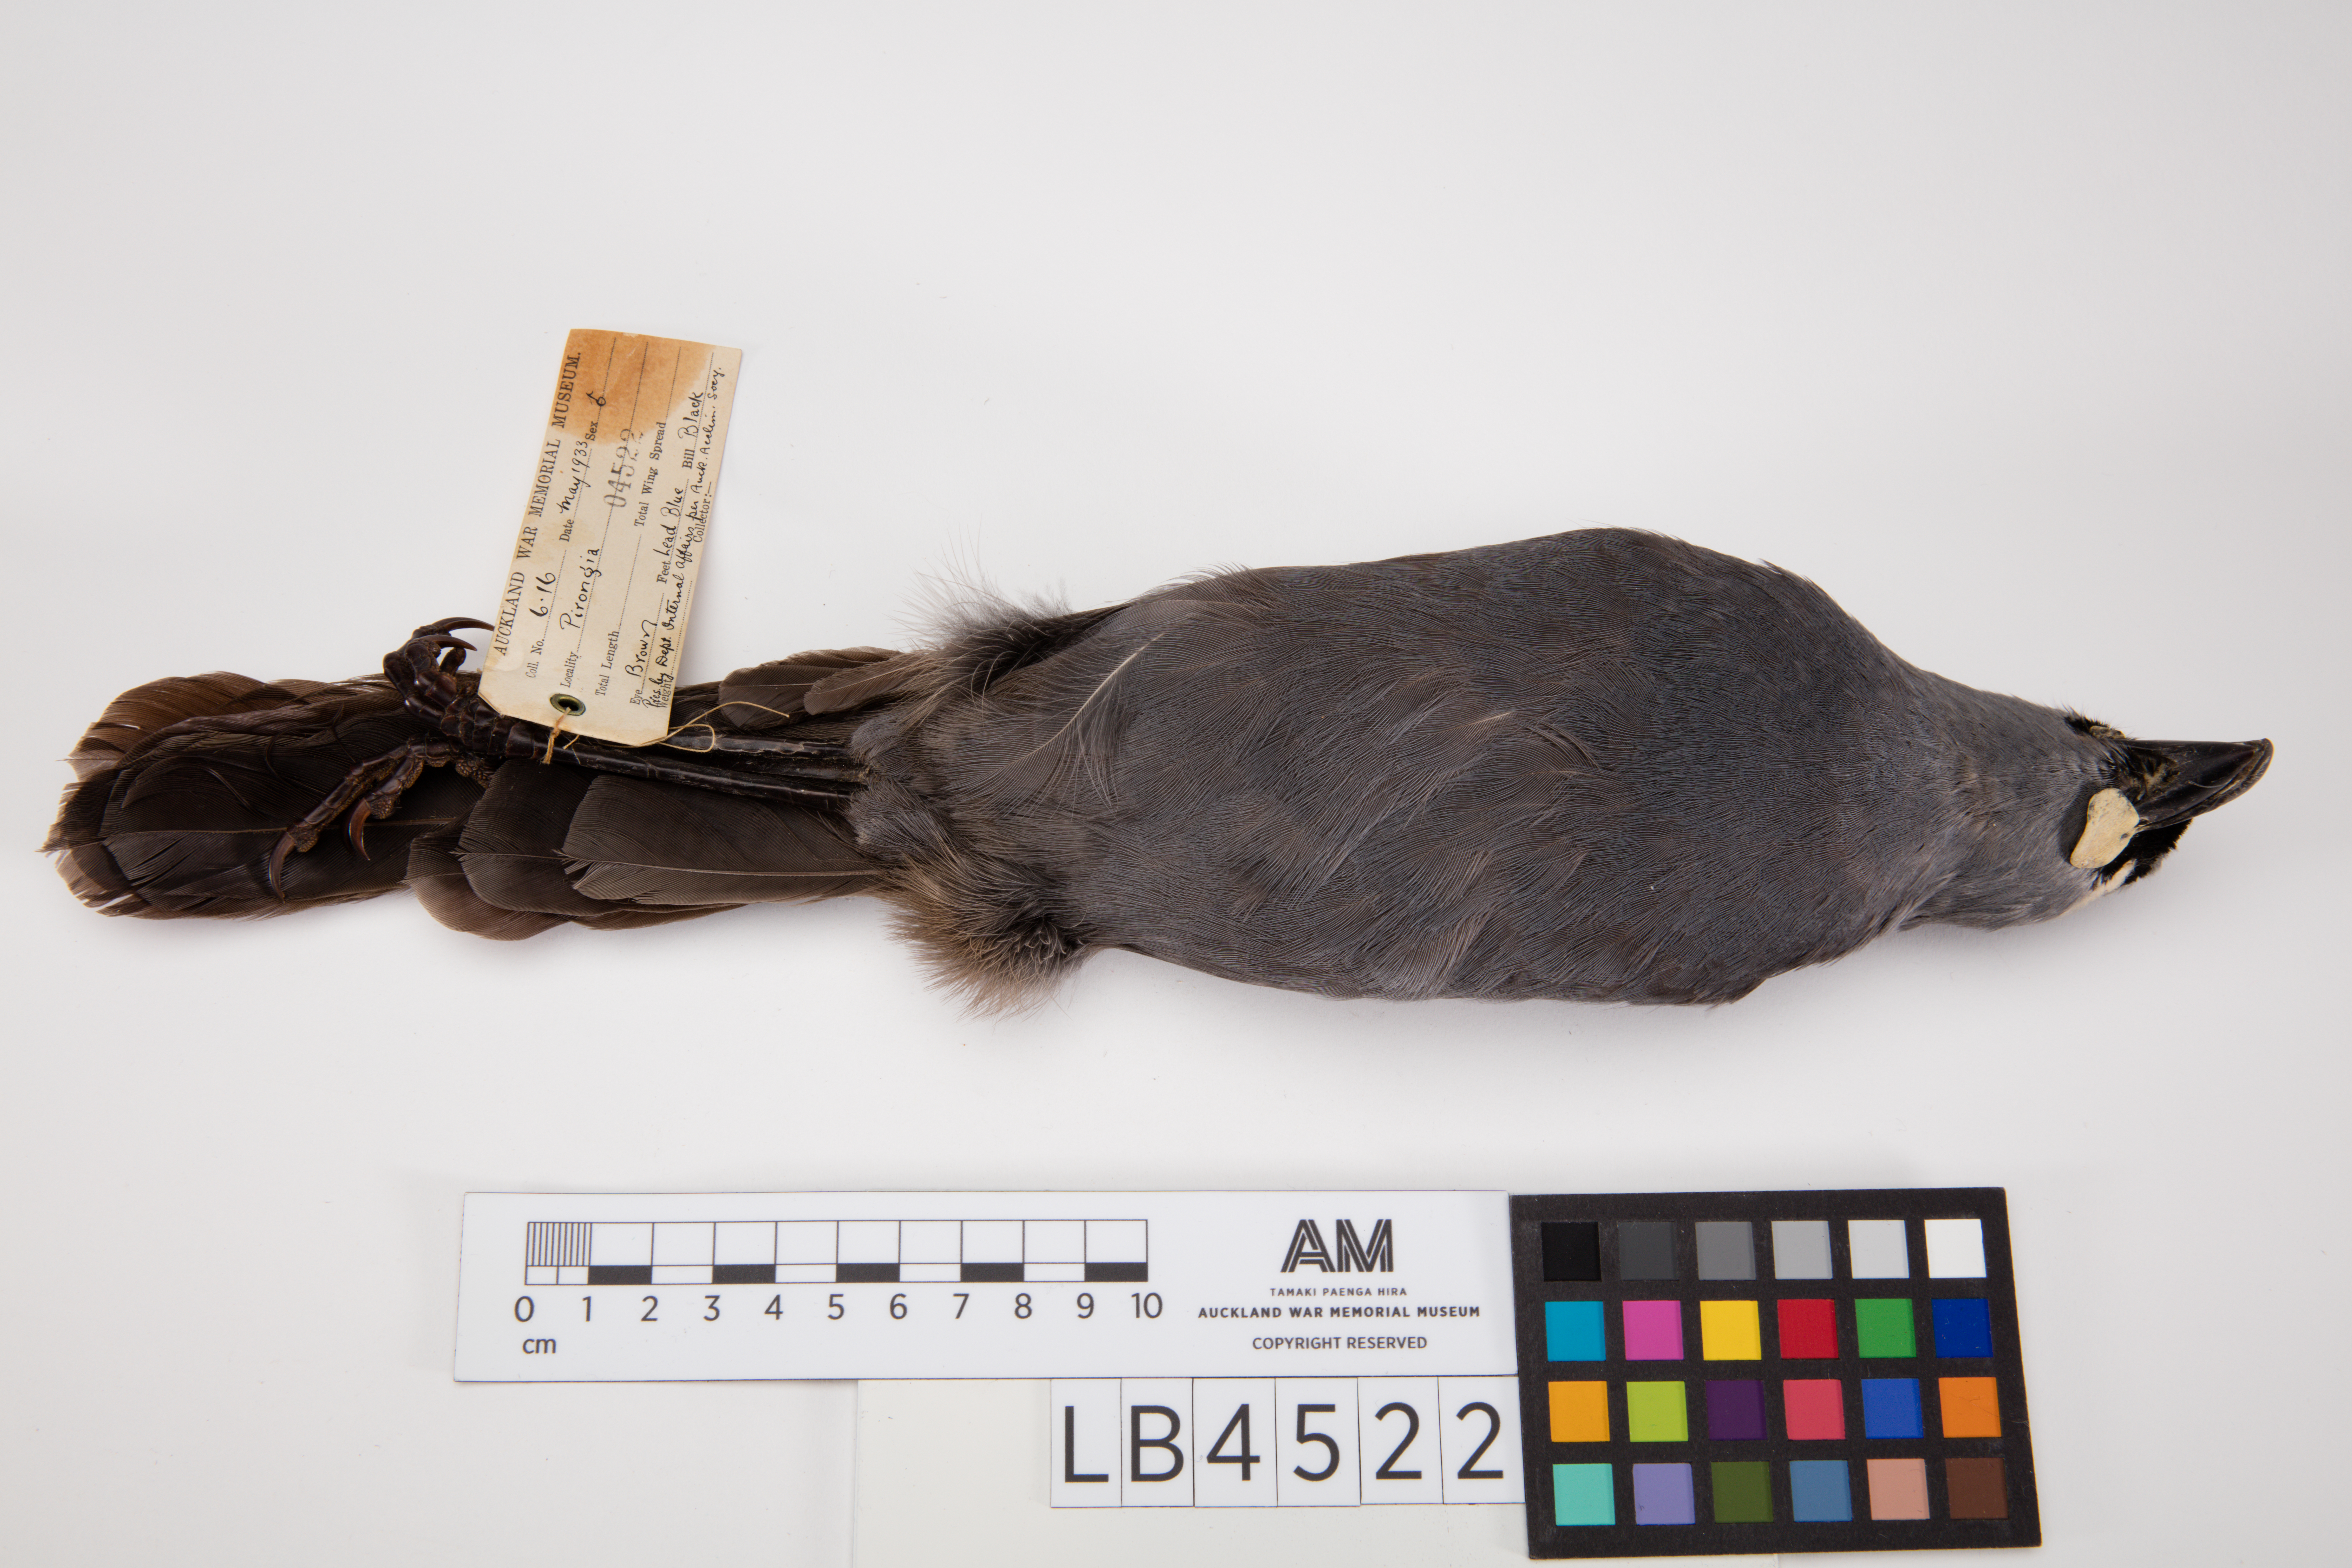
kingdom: Animalia
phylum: Chordata
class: Aves
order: Passeriformes
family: Callaeatidae
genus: Callaeas
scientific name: Callaeas cinereus
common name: South island kokako
